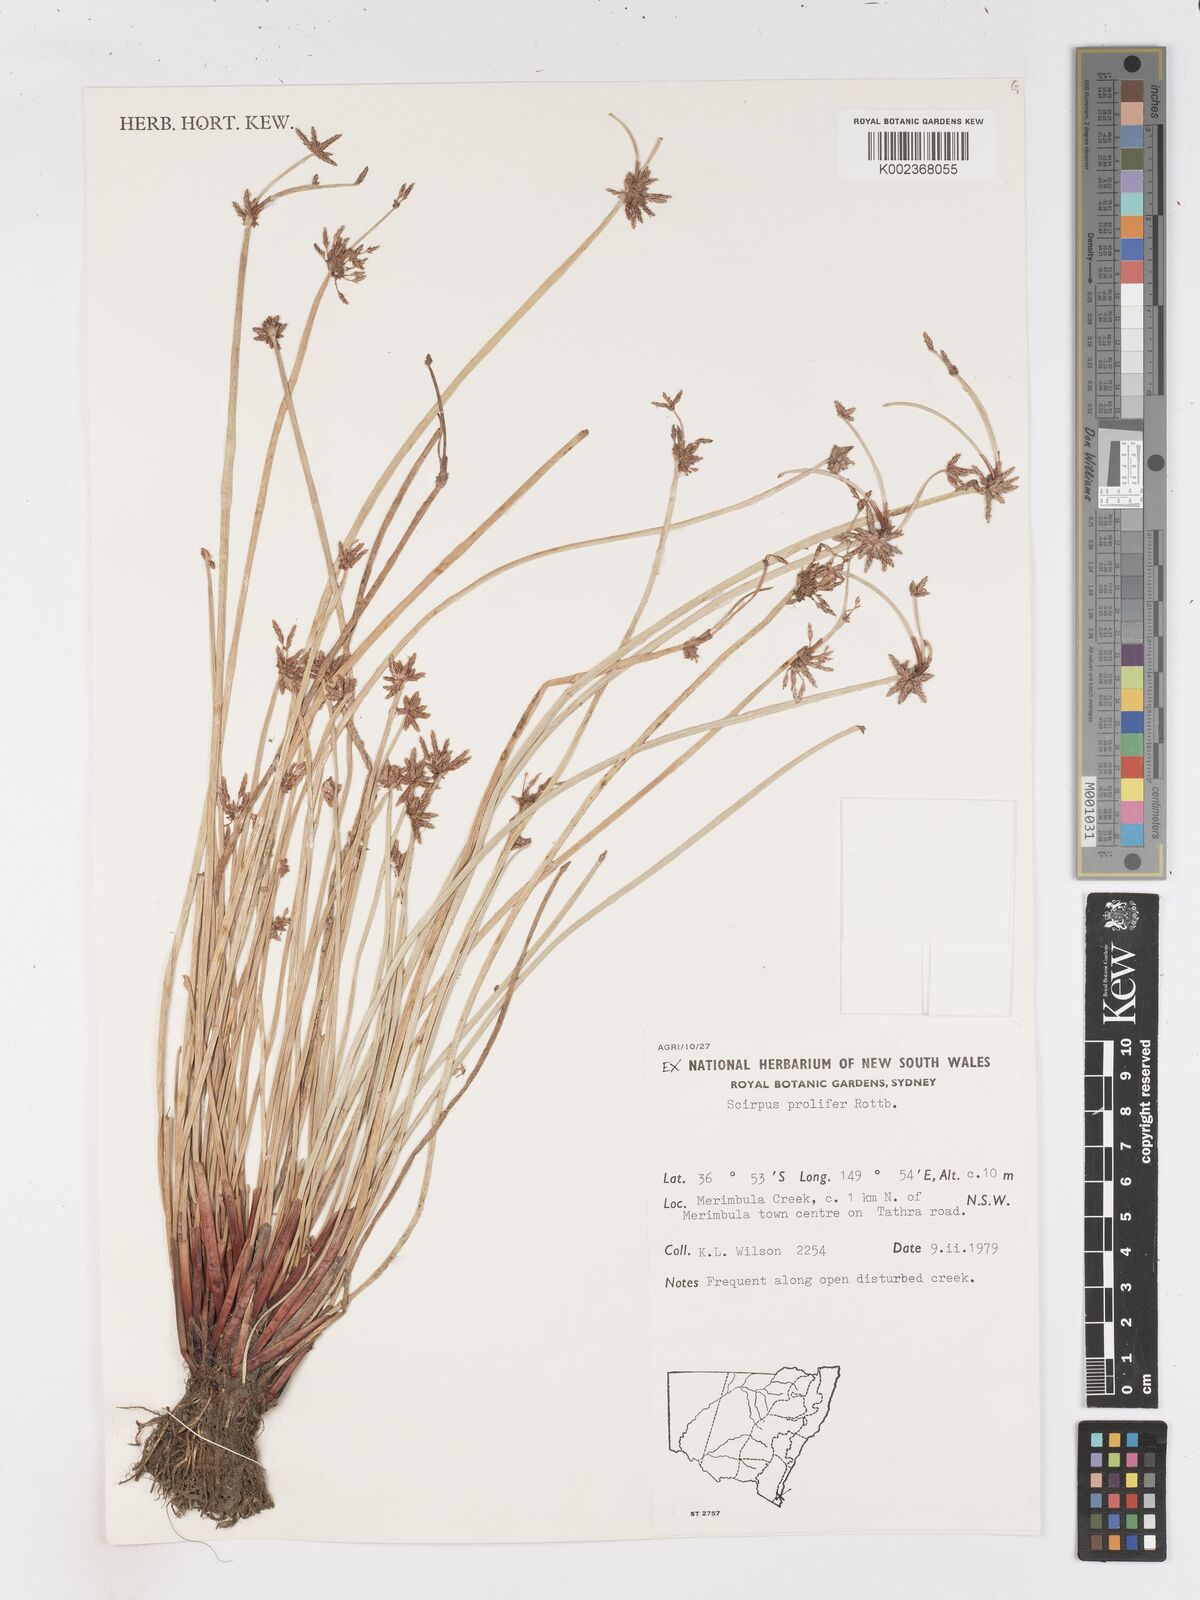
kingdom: Plantae
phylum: Tracheophyta
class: Liliopsida
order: Poales
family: Cyperaceae
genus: Isolepis
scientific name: Isolepis prolifera
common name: Proliferating bulrush
